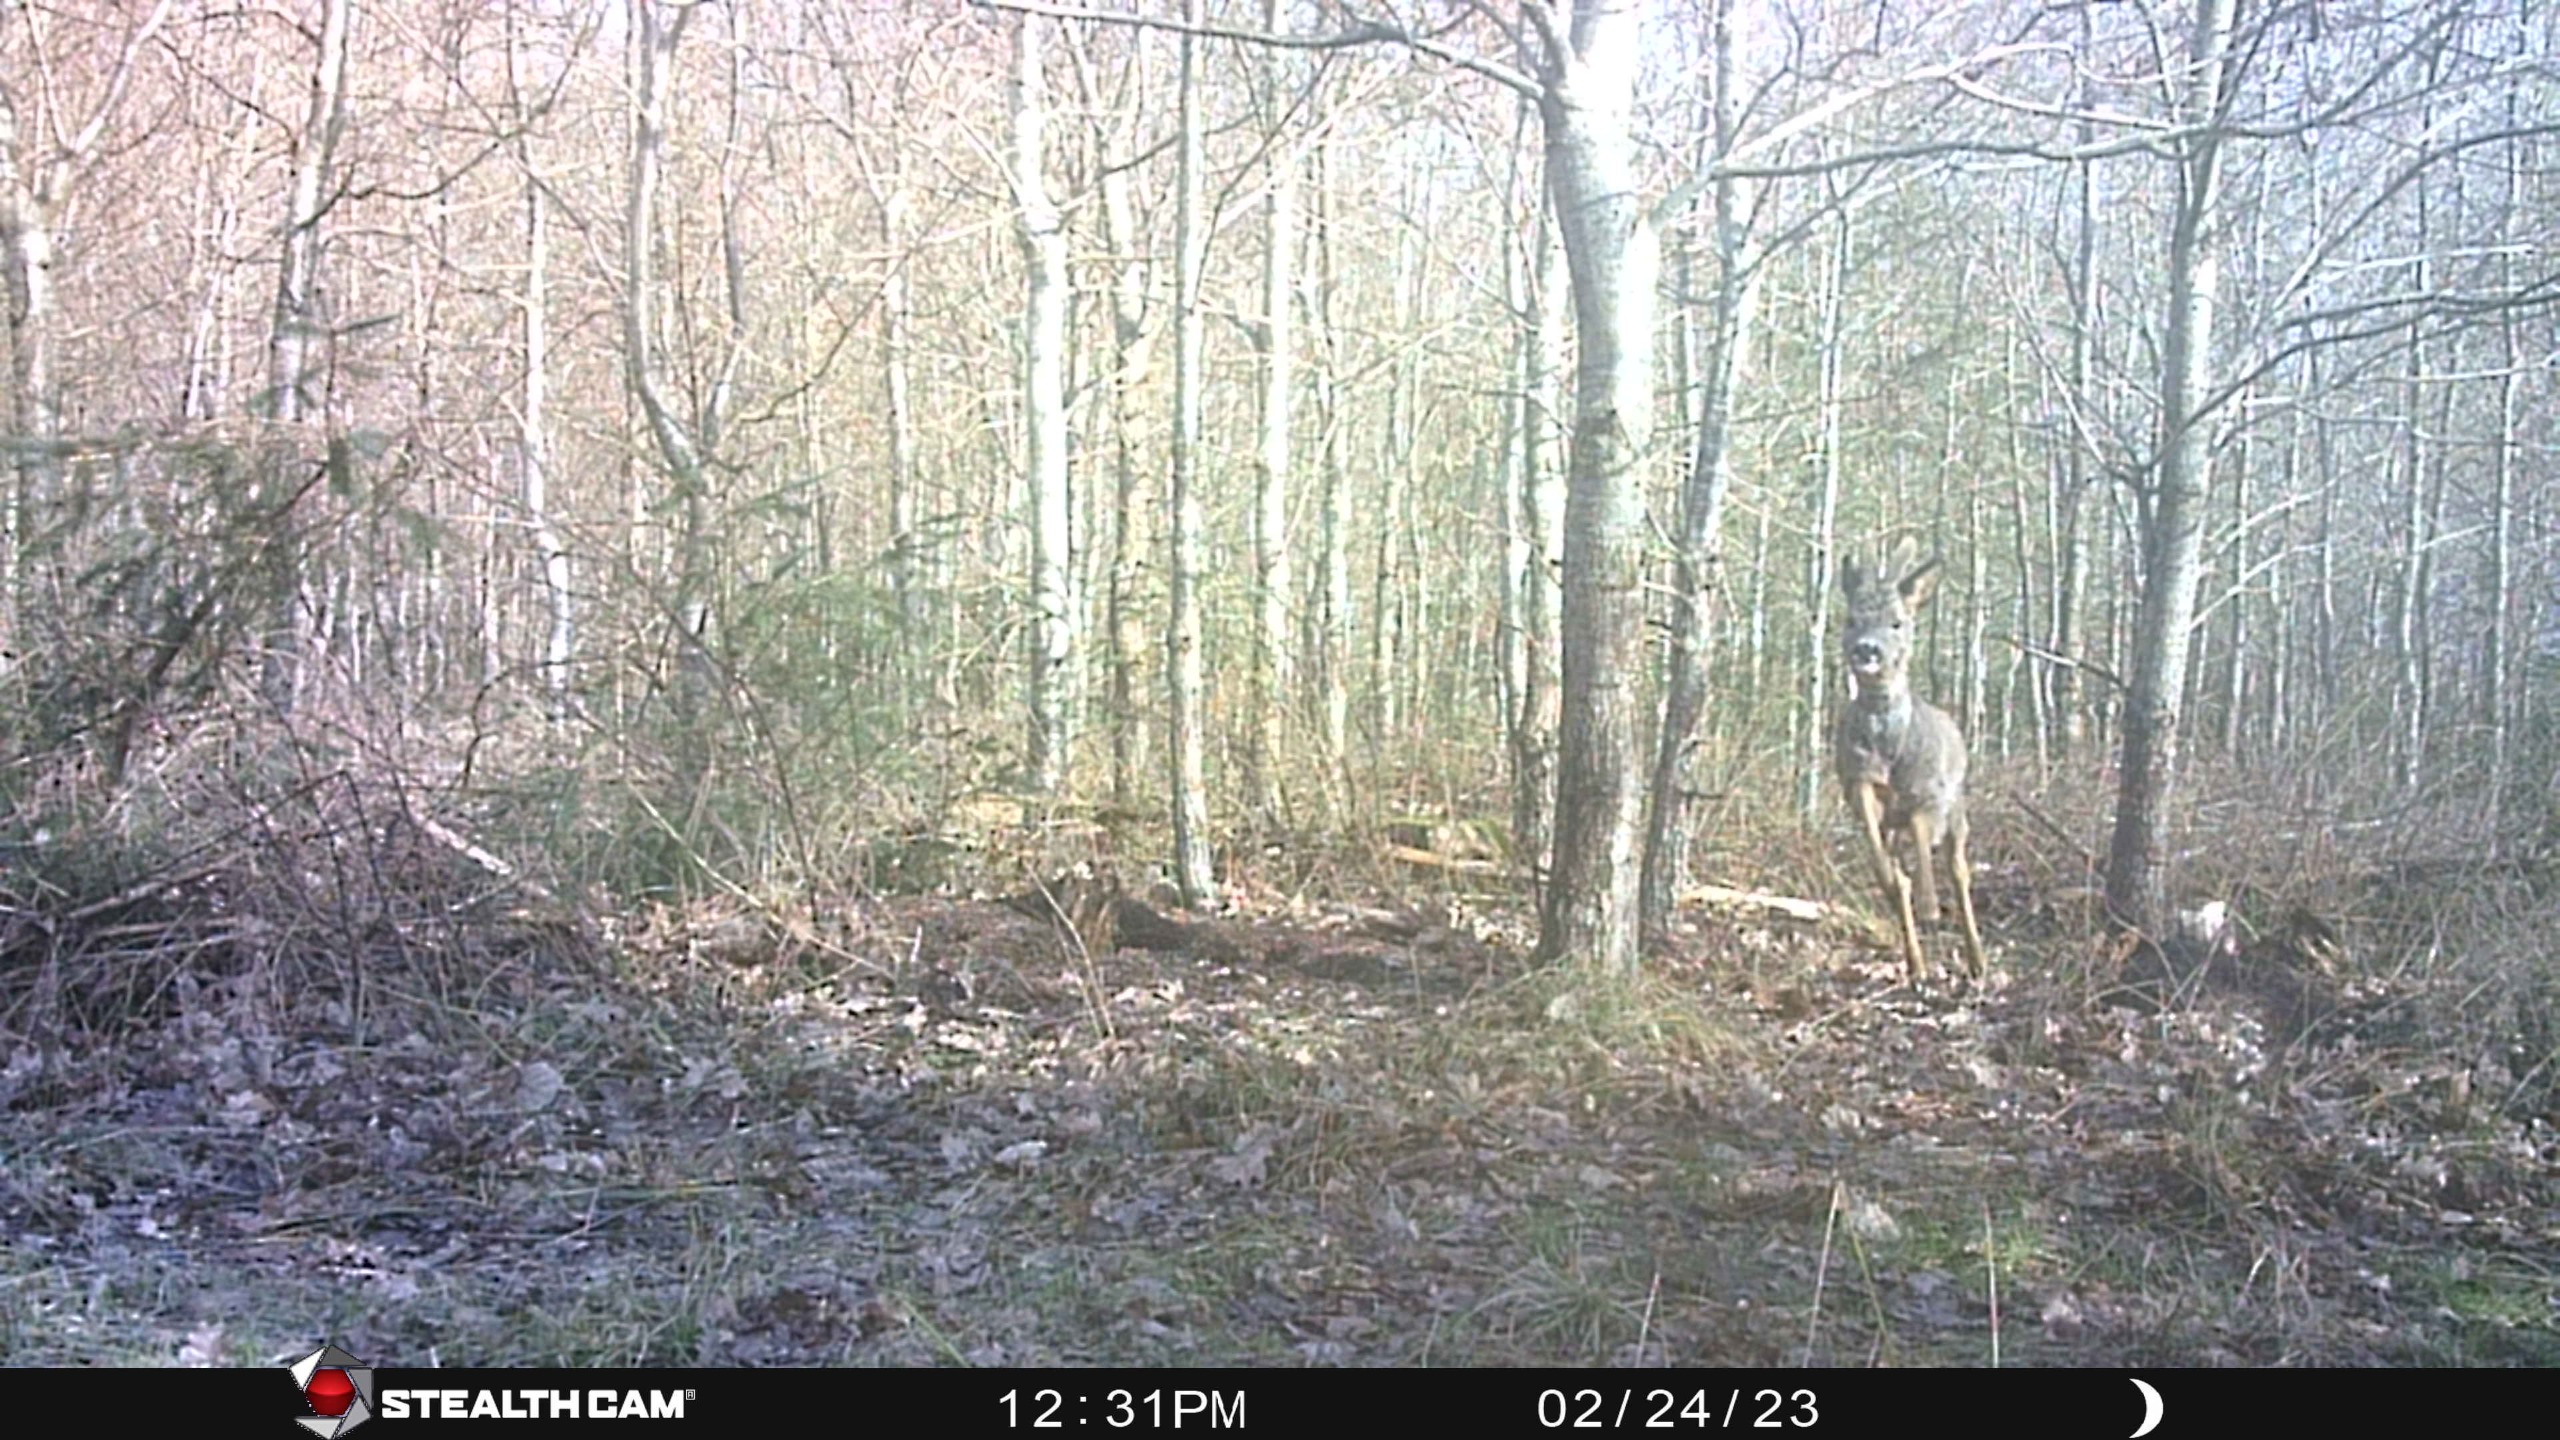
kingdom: Animalia
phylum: Chordata
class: Mammalia
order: Artiodactyla
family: Cervidae
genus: Capreolus
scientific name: Capreolus capreolus
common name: Rådyr
